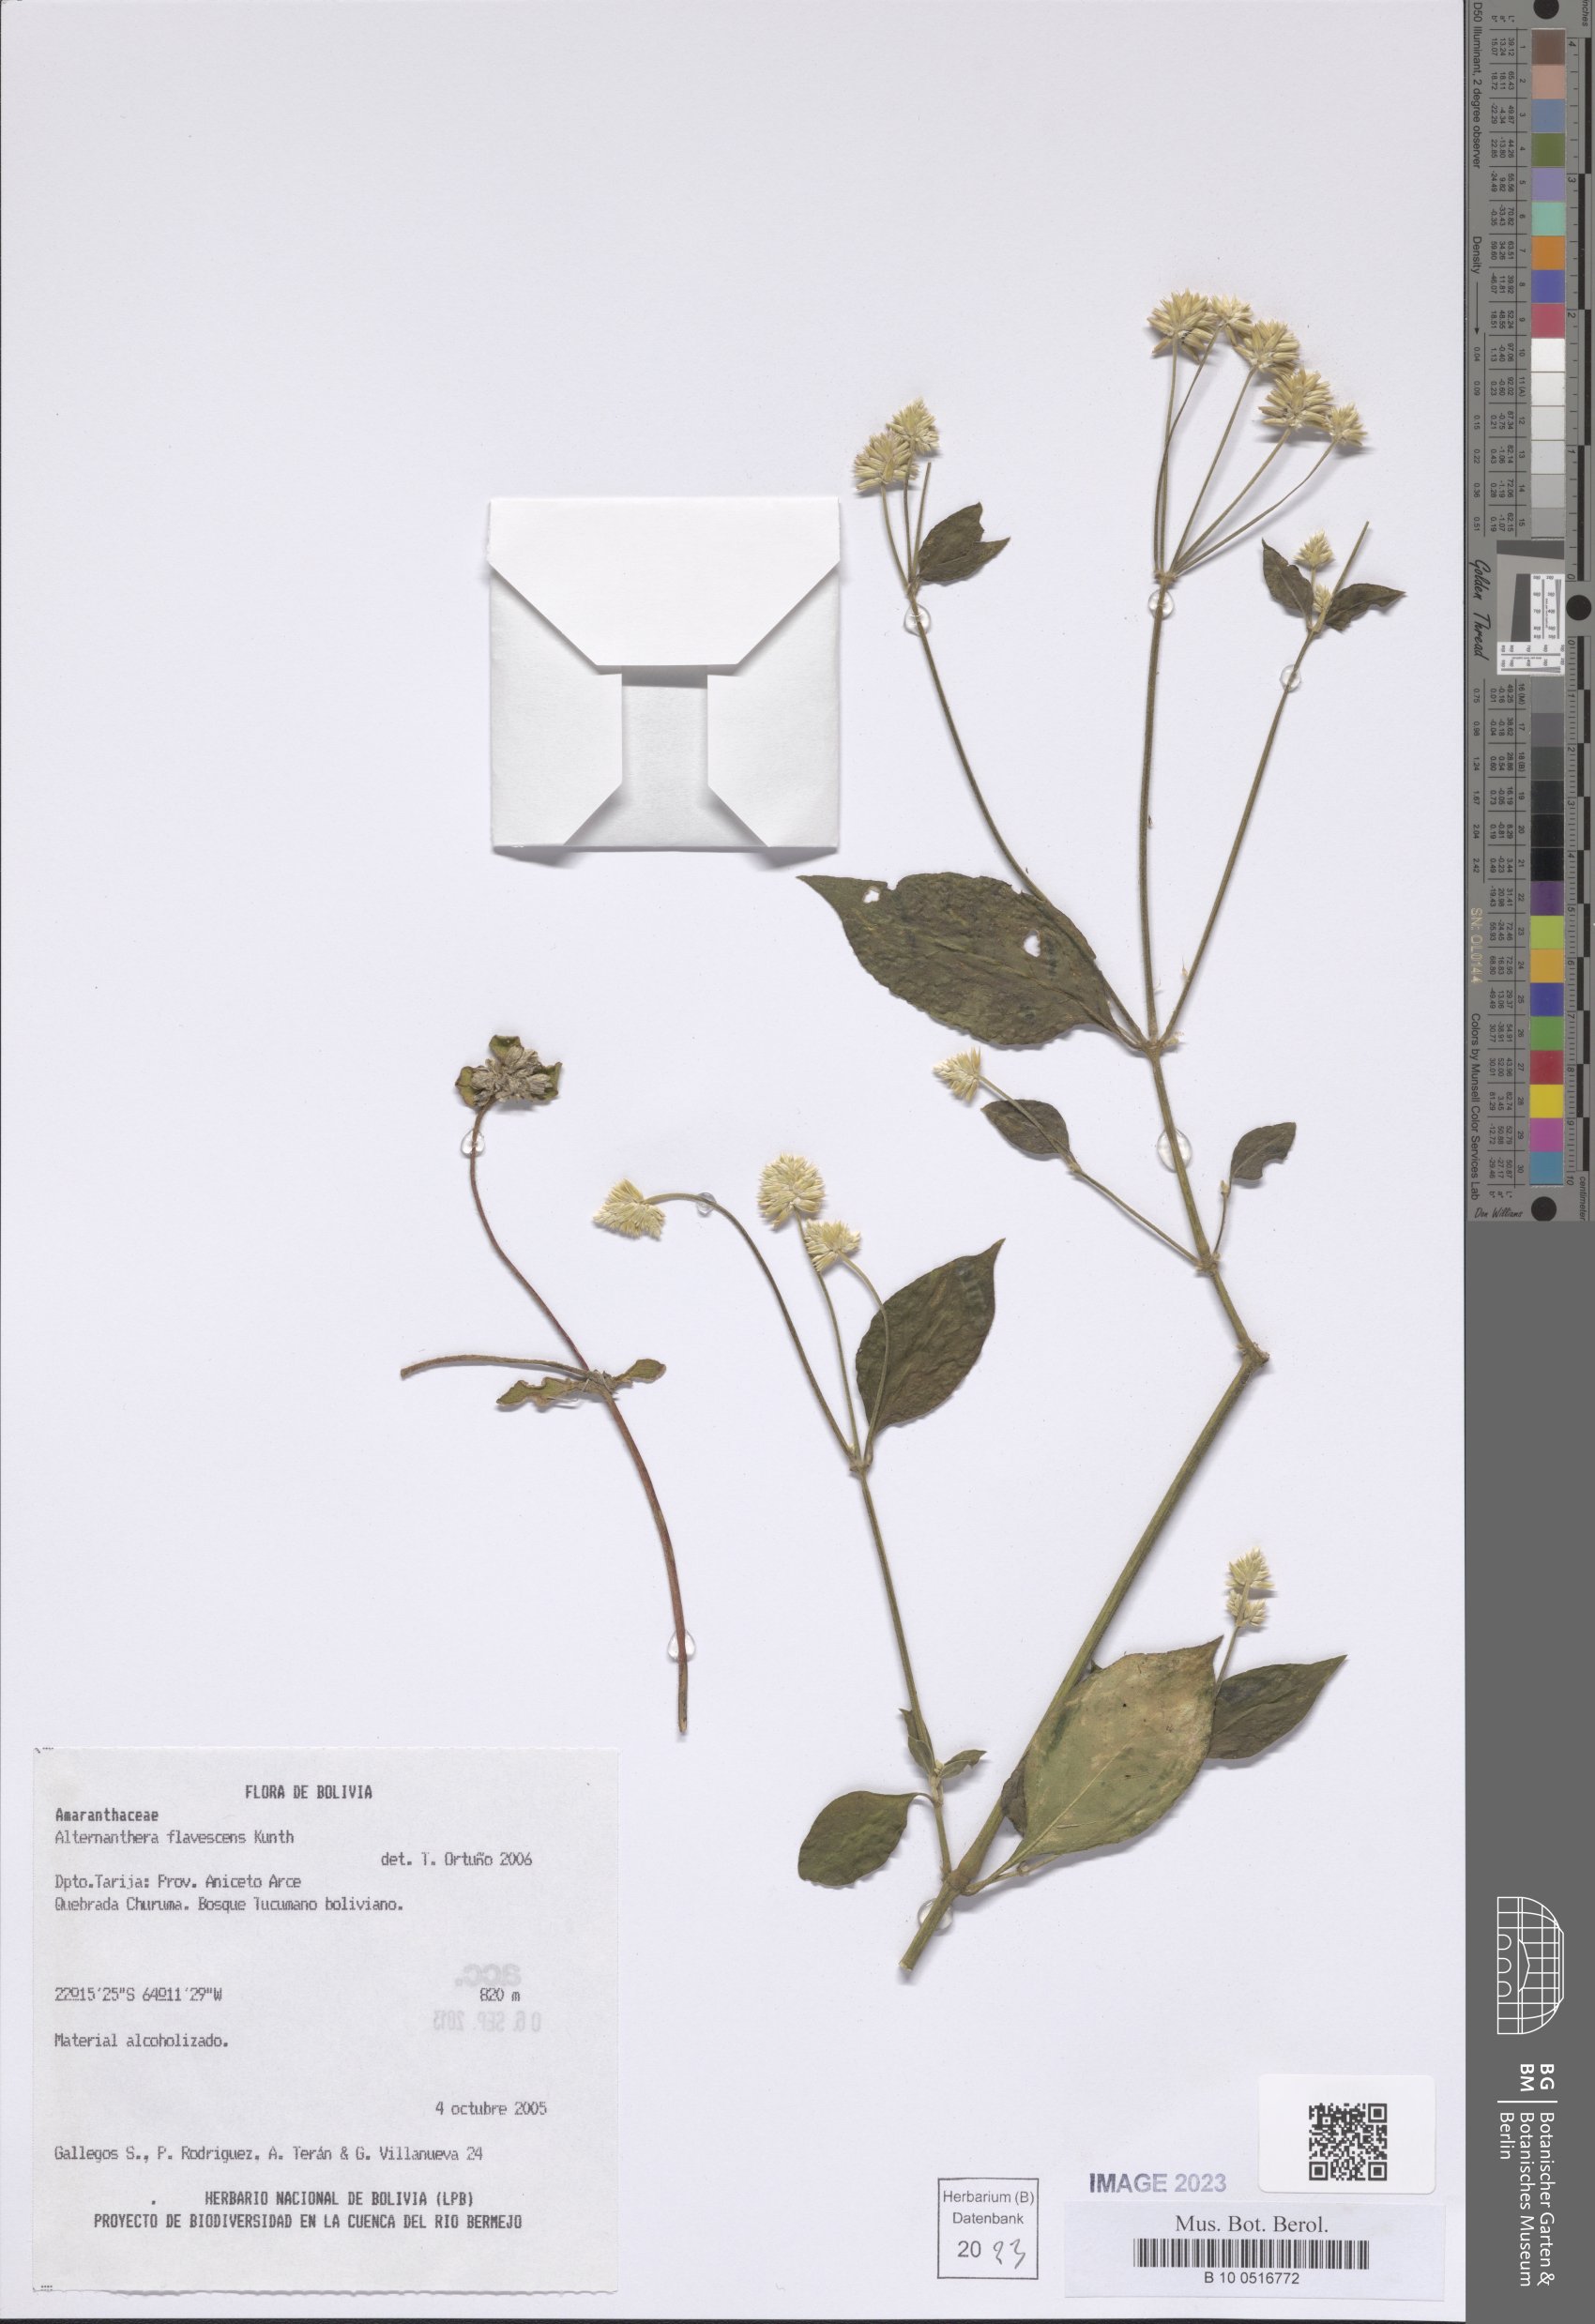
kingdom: Plantae
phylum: Tracheophyta
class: Magnoliopsida
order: Caryophyllales
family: Amaranthaceae
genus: Alternanthera
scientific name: Alternanthera flavescens
